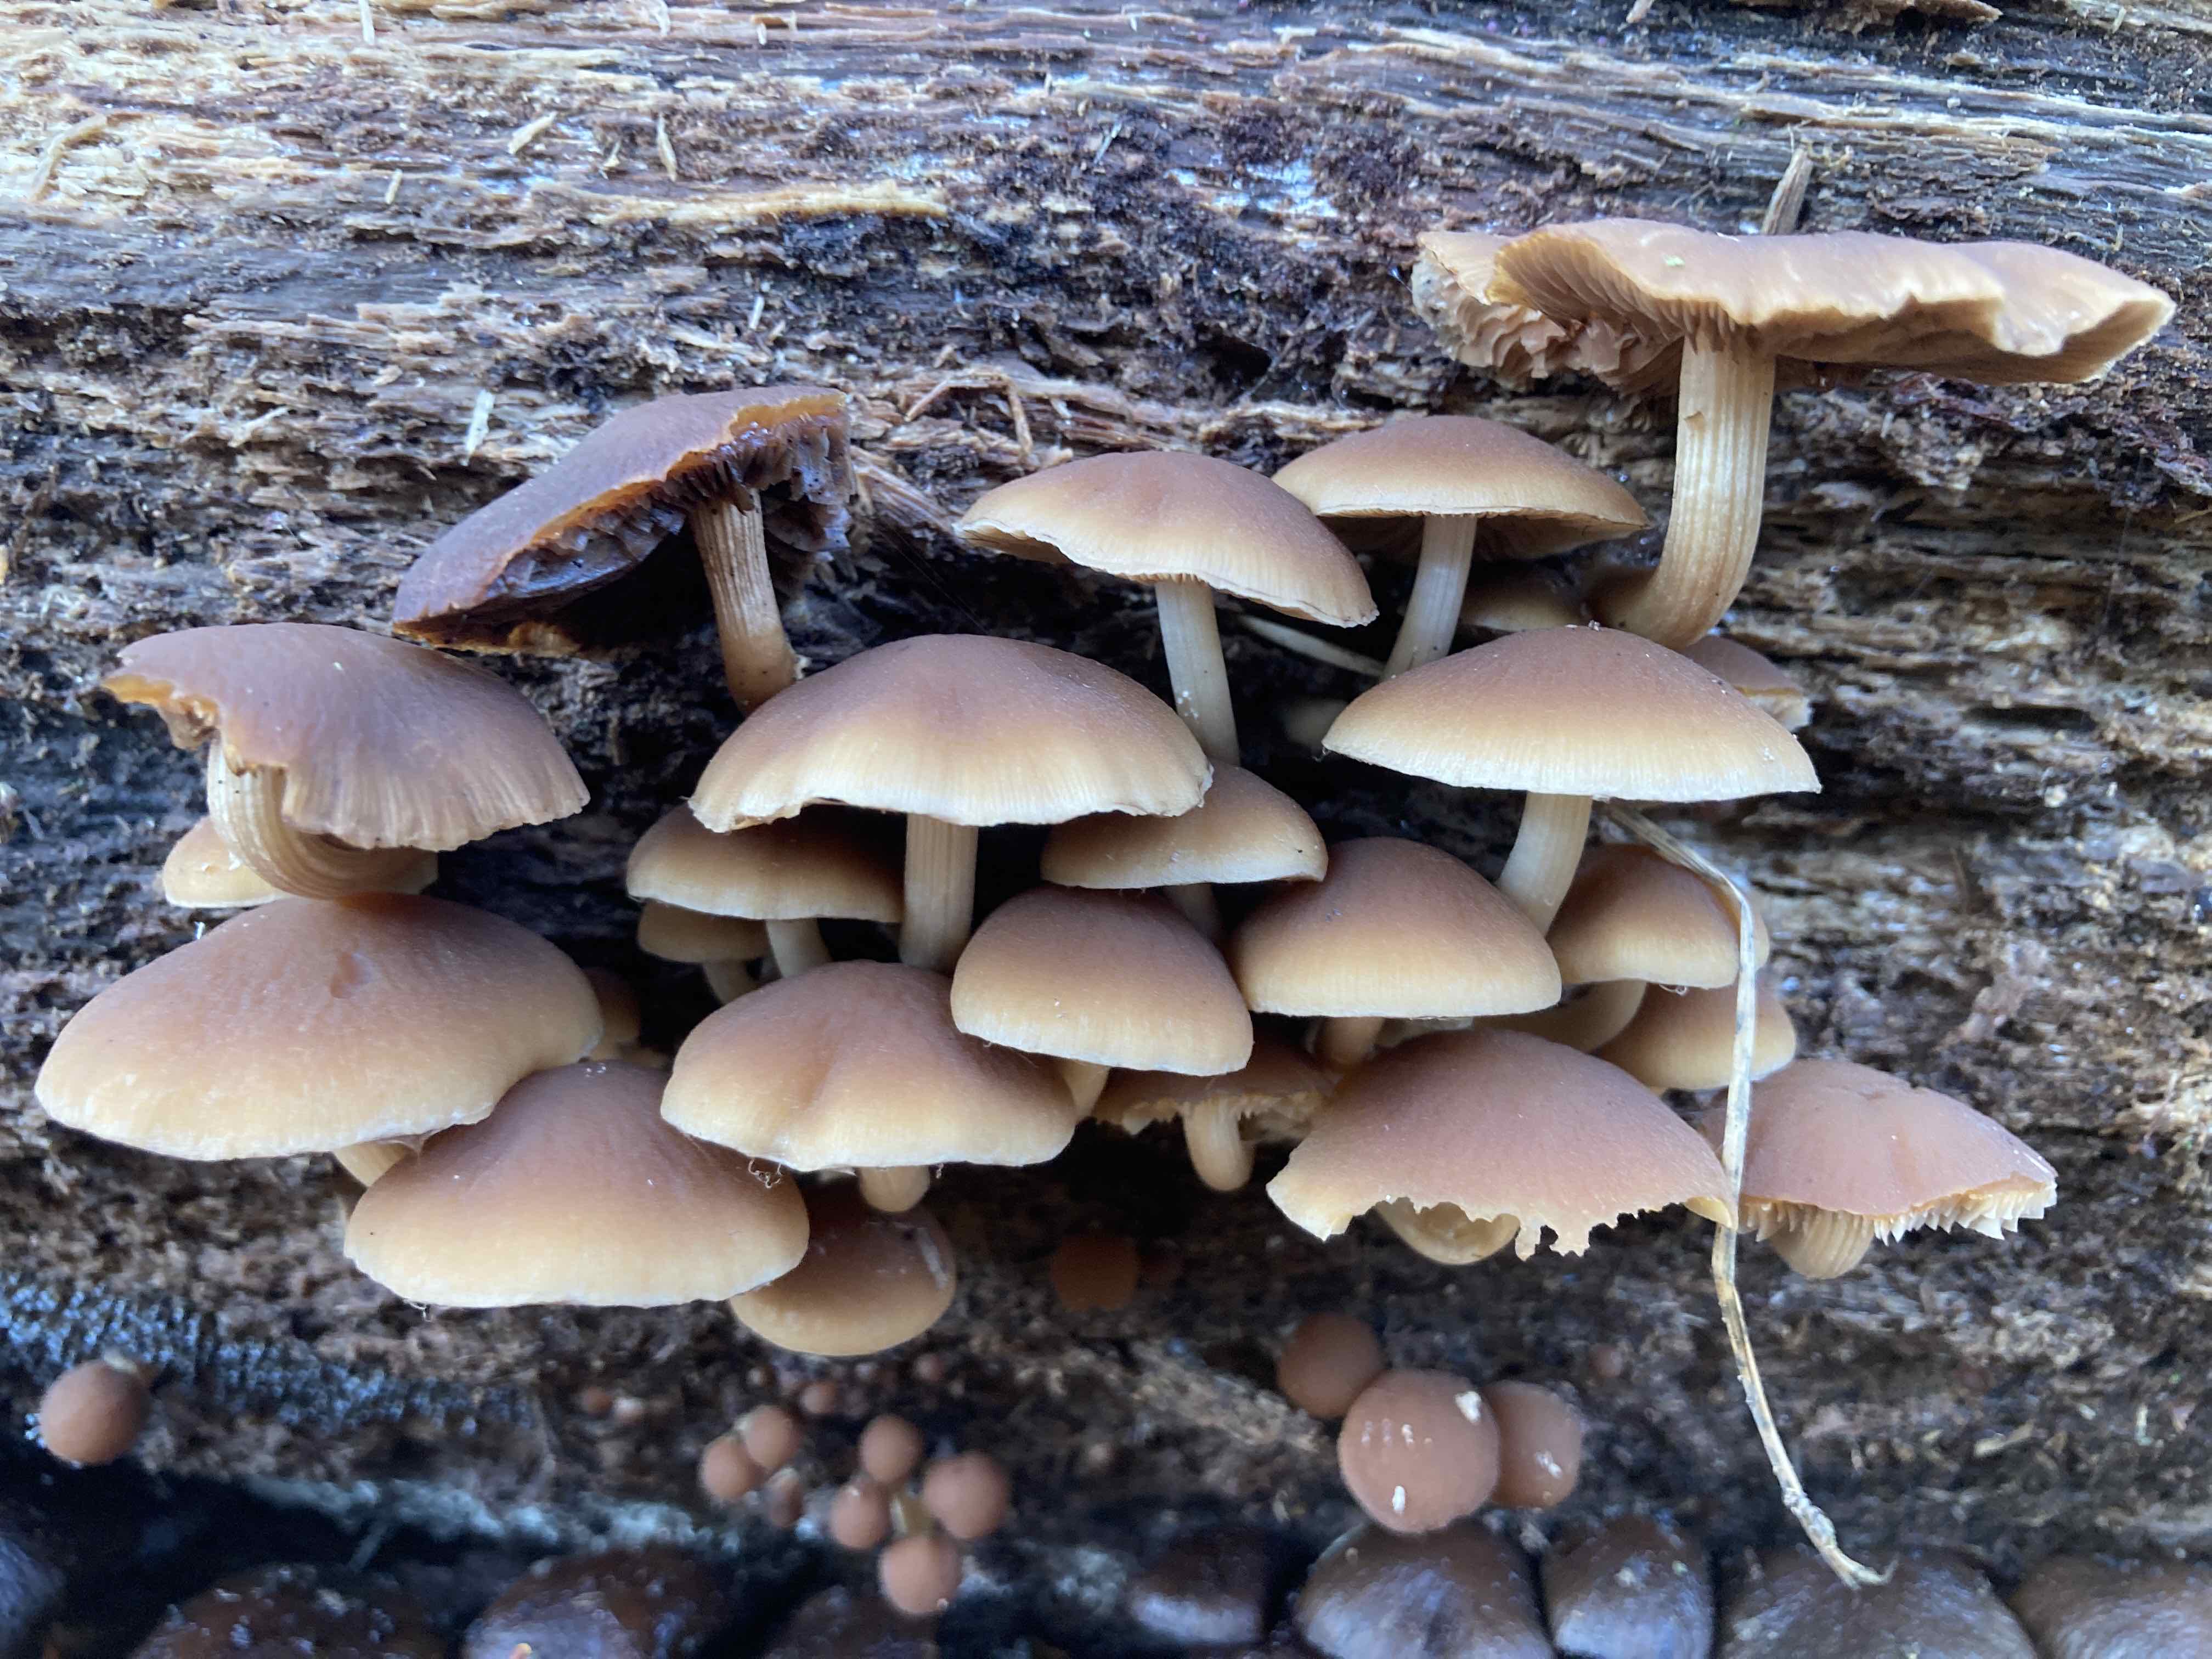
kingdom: Fungi
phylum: Basidiomycota
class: Agaricomycetes
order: Agaricales
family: Psathyrellaceae
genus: Psathyrella
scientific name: Psathyrella piluliformis
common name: lysstokket mørkhat
